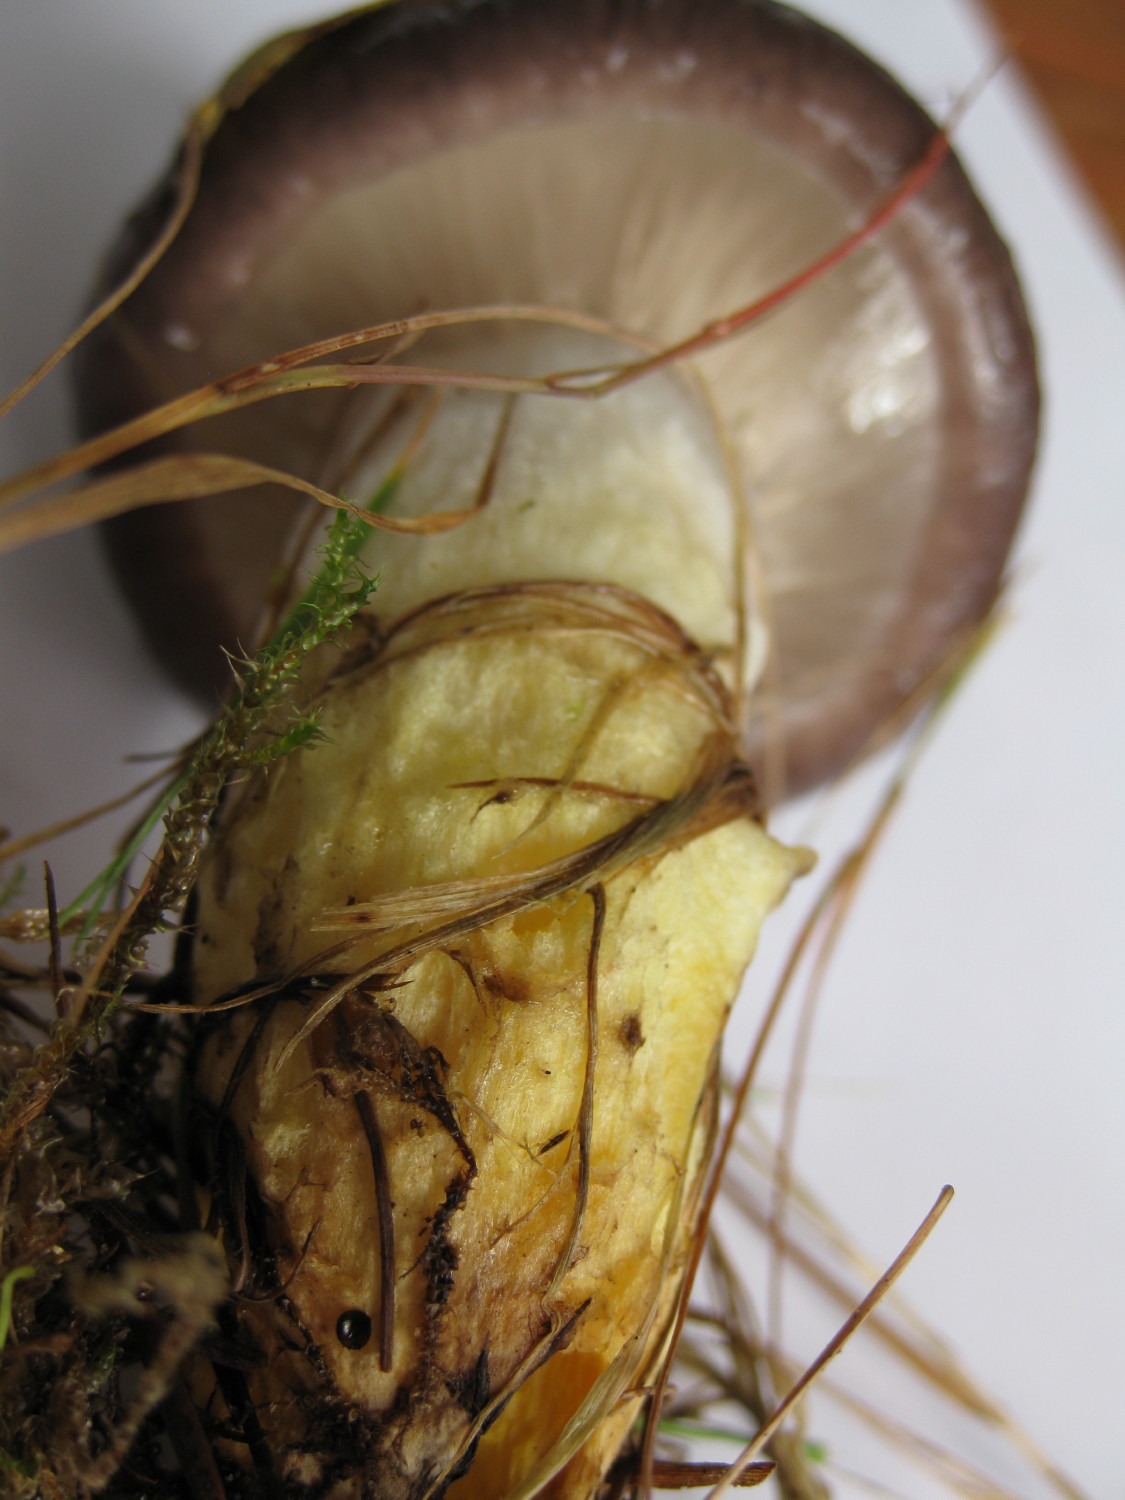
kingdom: Fungi
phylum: Basidiomycota
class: Agaricomycetes
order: Boletales
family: Gomphidiaceae
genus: Gomphidius
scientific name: Gomphidius glutinosus
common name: grå slimslør
